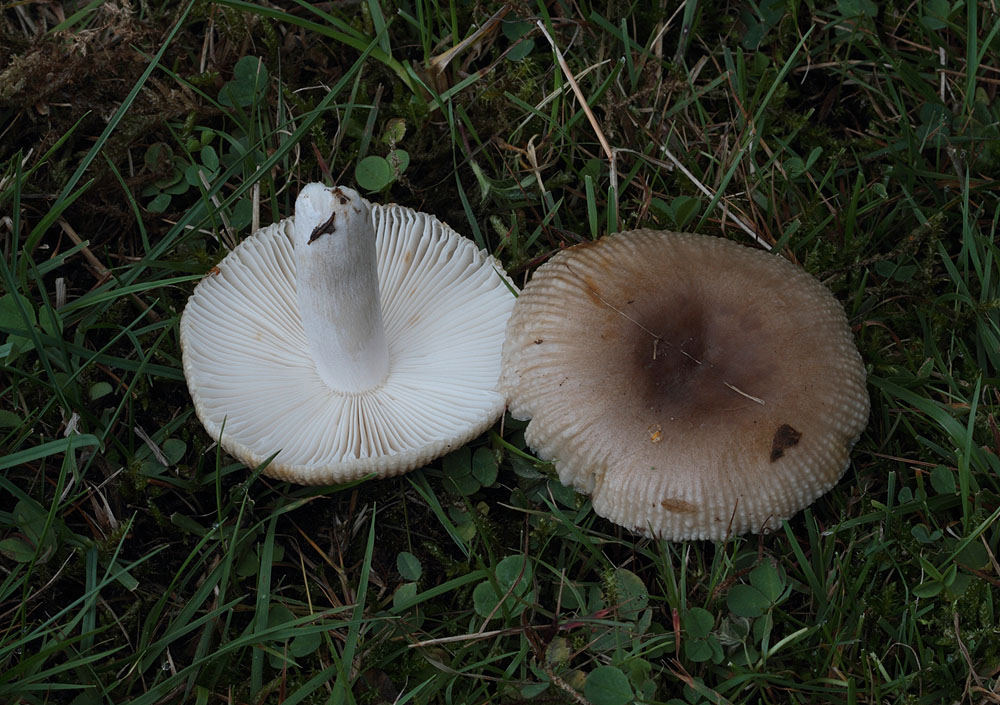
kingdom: Fungi
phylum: Basidiomycota
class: Agaricomycetes
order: Russulales
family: Russulaceae
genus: Russula
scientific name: Russula amoenolens
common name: skarp kam-skørhat
